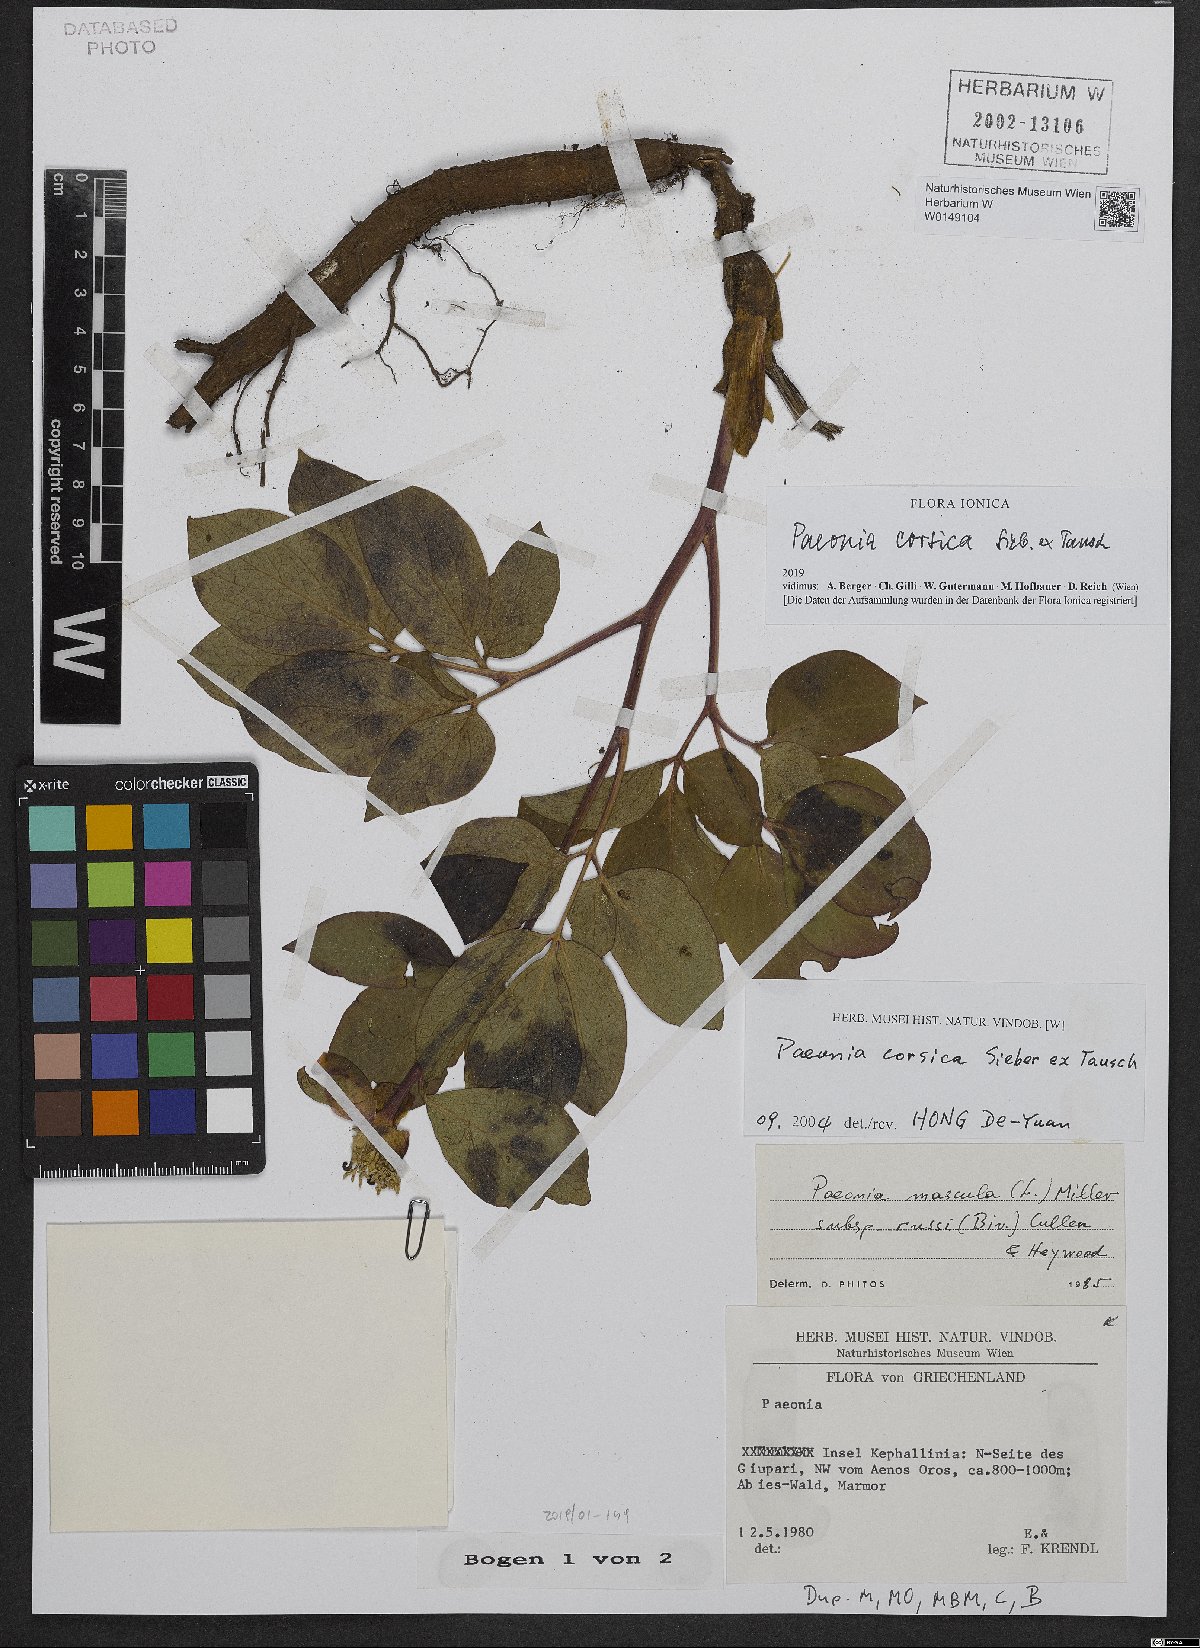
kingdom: Plantae
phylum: Tracheophyta
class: Magnoliopsida
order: Saxifragales
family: Paeoniaceae
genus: Paeonia
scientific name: Paeonia corsica
